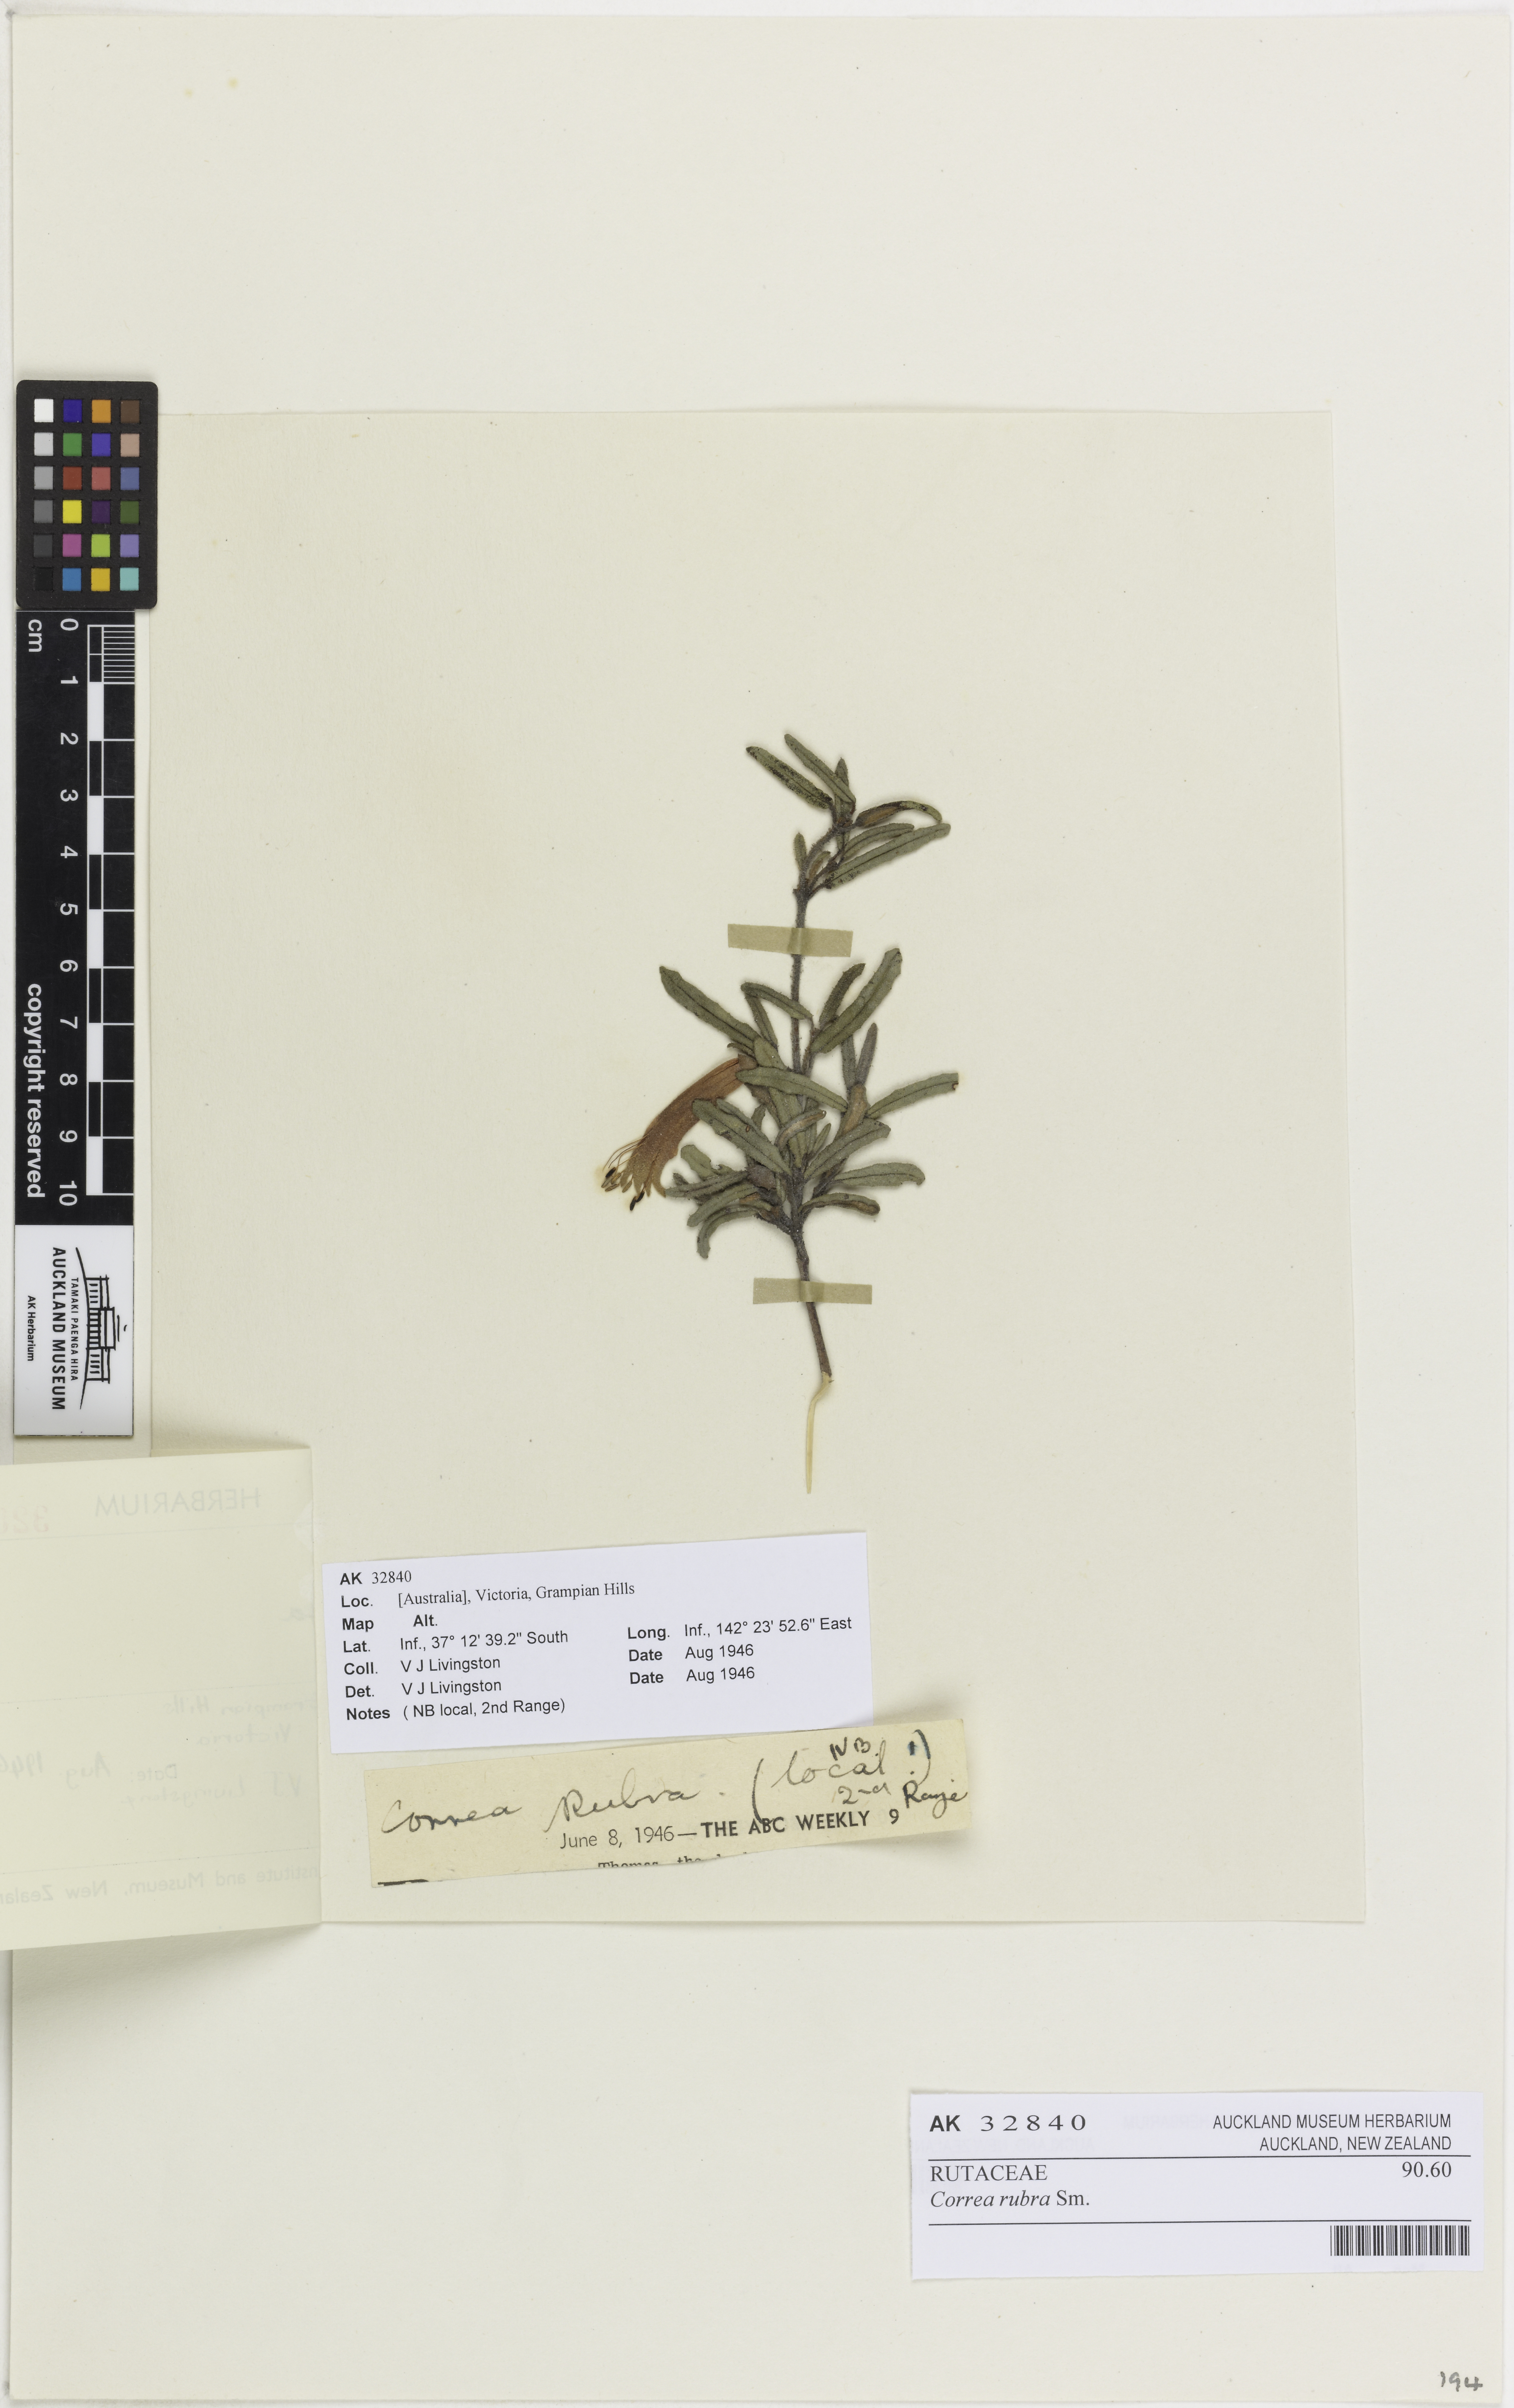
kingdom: Plantae
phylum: Tracheophyta
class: Magnoliopsida
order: Sapindales
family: Rutaceae
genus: Correa
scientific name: Correa rubra
